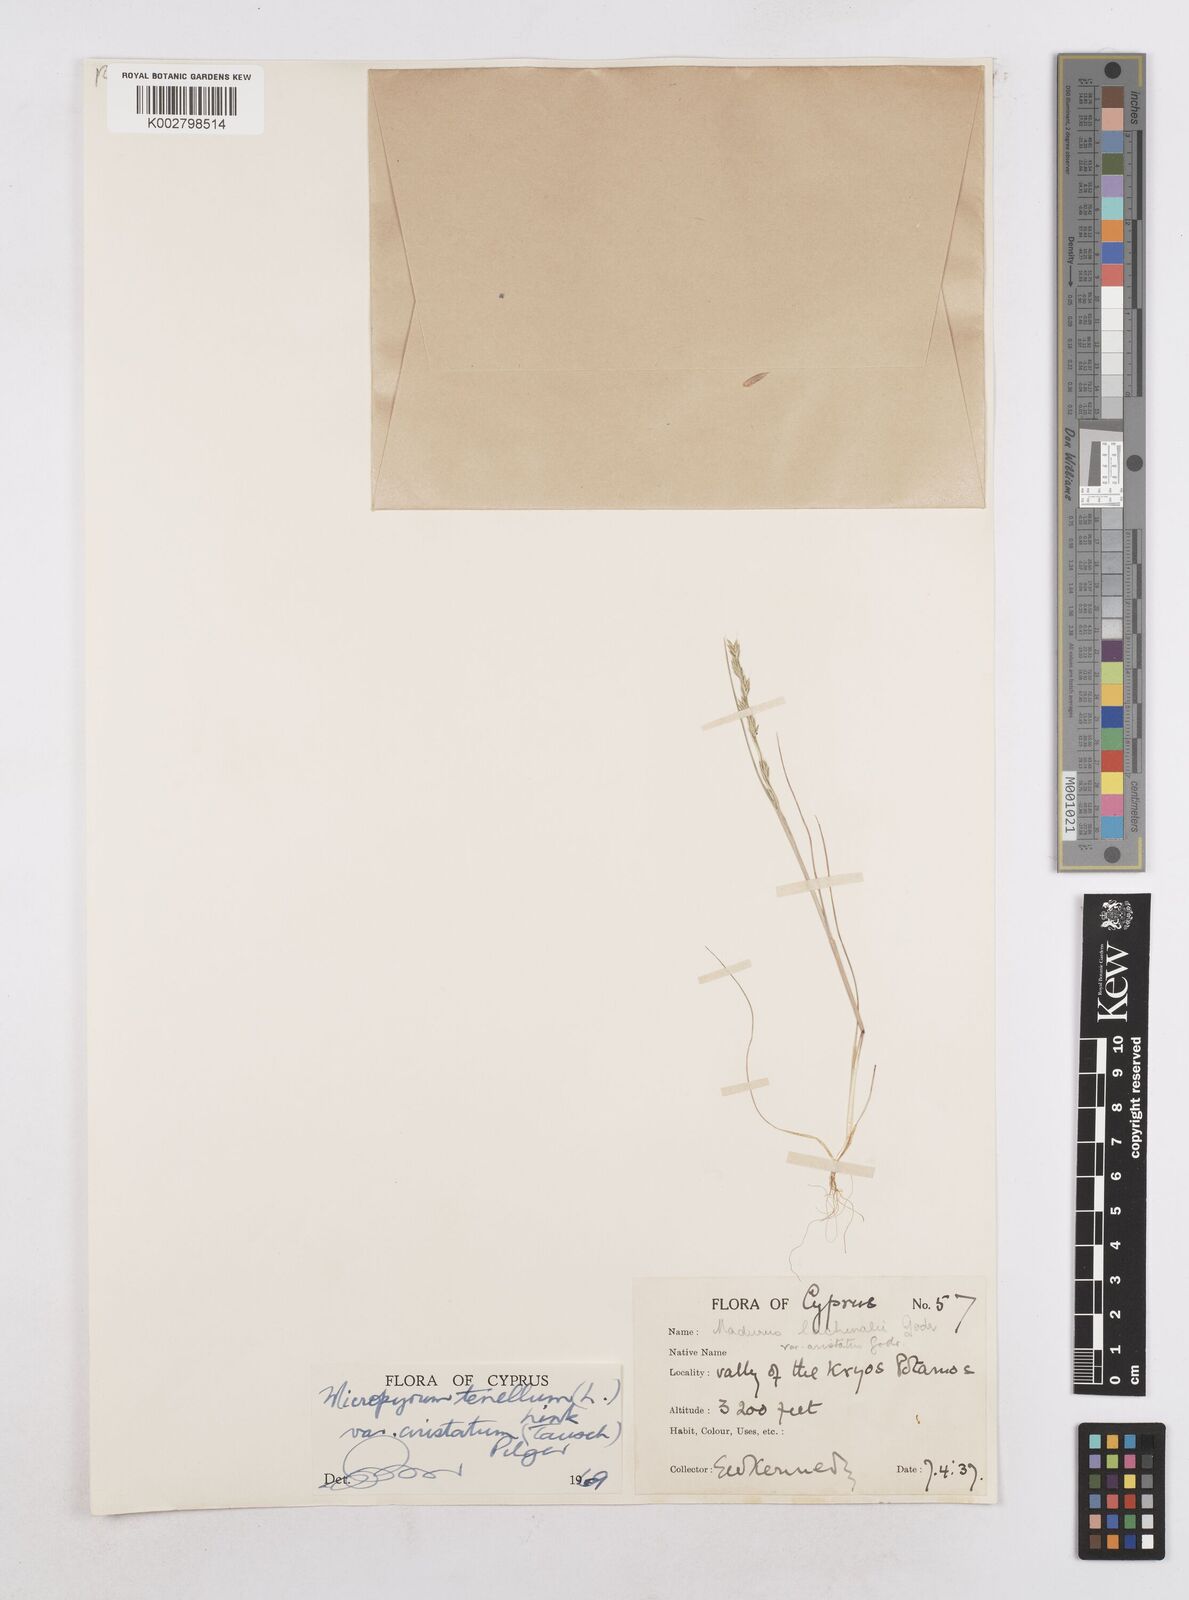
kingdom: Plantae
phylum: Tracheophyta
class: Liliopsida
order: Poales
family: Poaceae
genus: Festuca
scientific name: Festuca lachenalii
